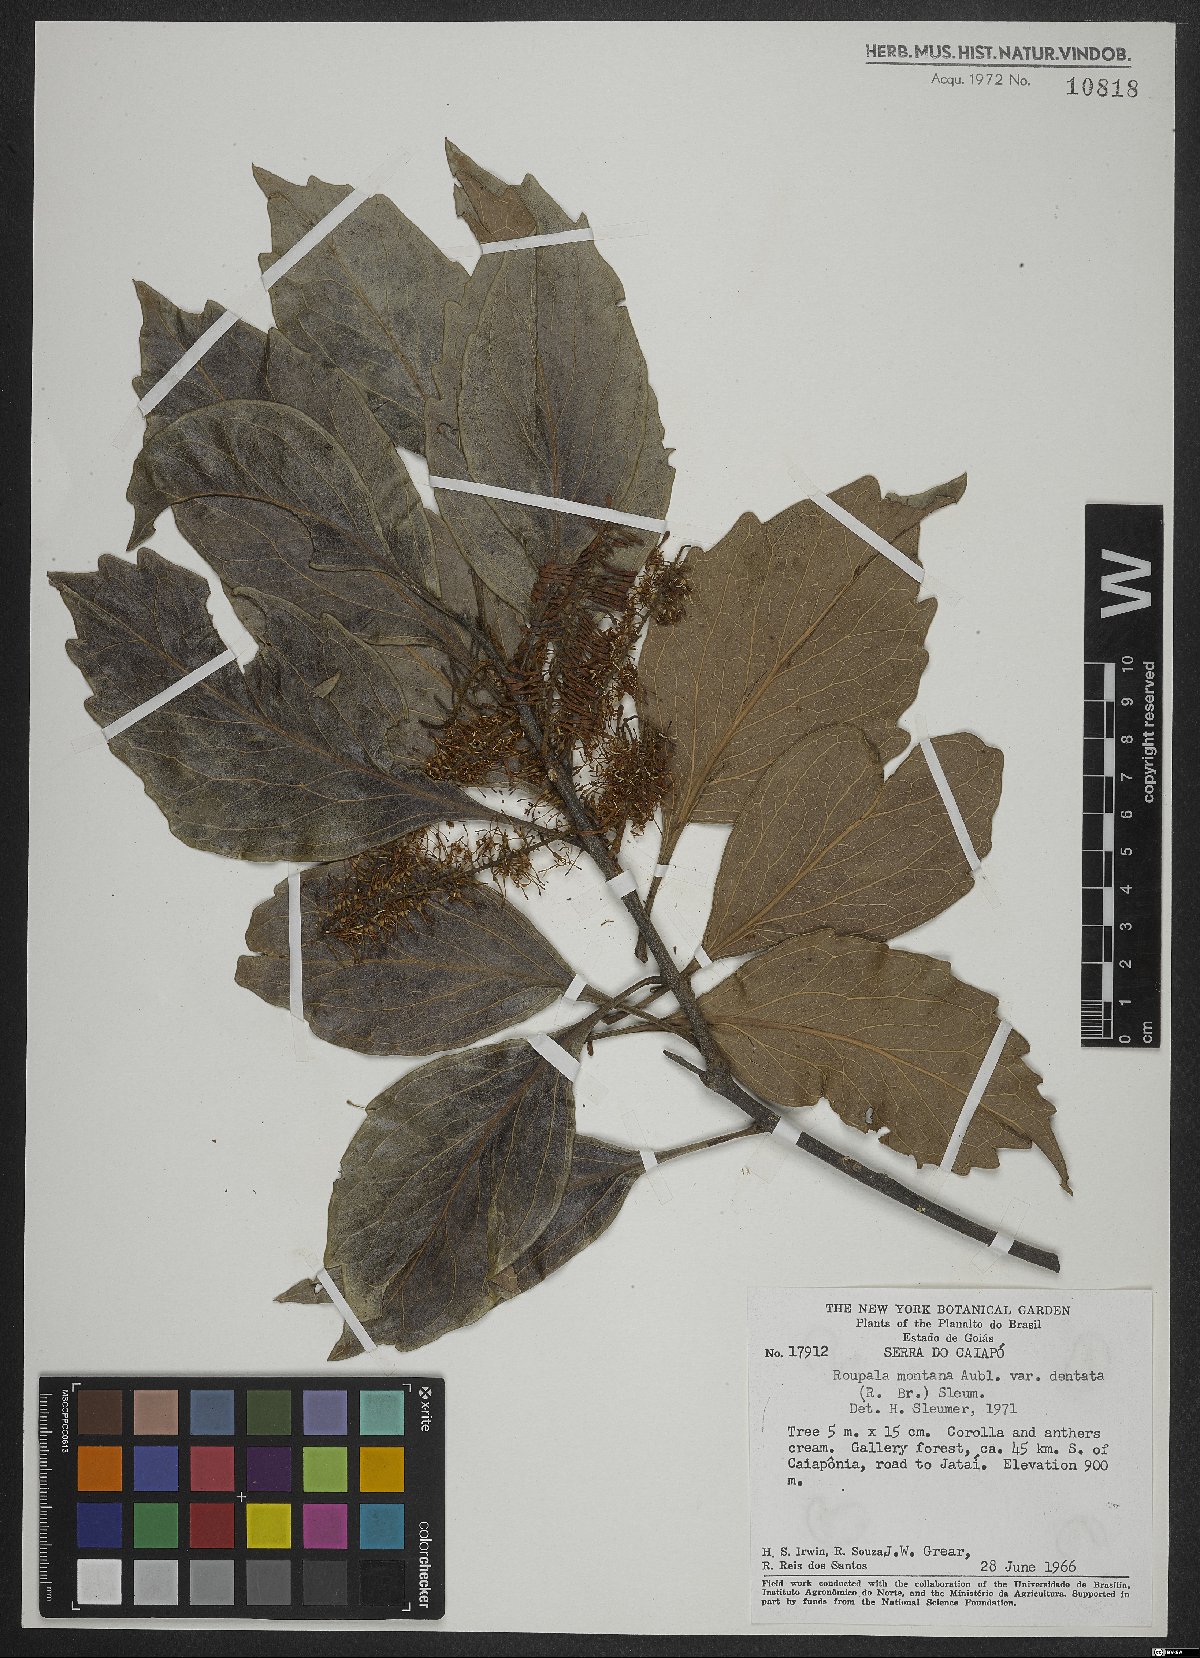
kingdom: Plantae
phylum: Tracheophyta
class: Magnoliopsida
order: Proteales
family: Proteaceae
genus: Roupala
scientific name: Roupala montana
